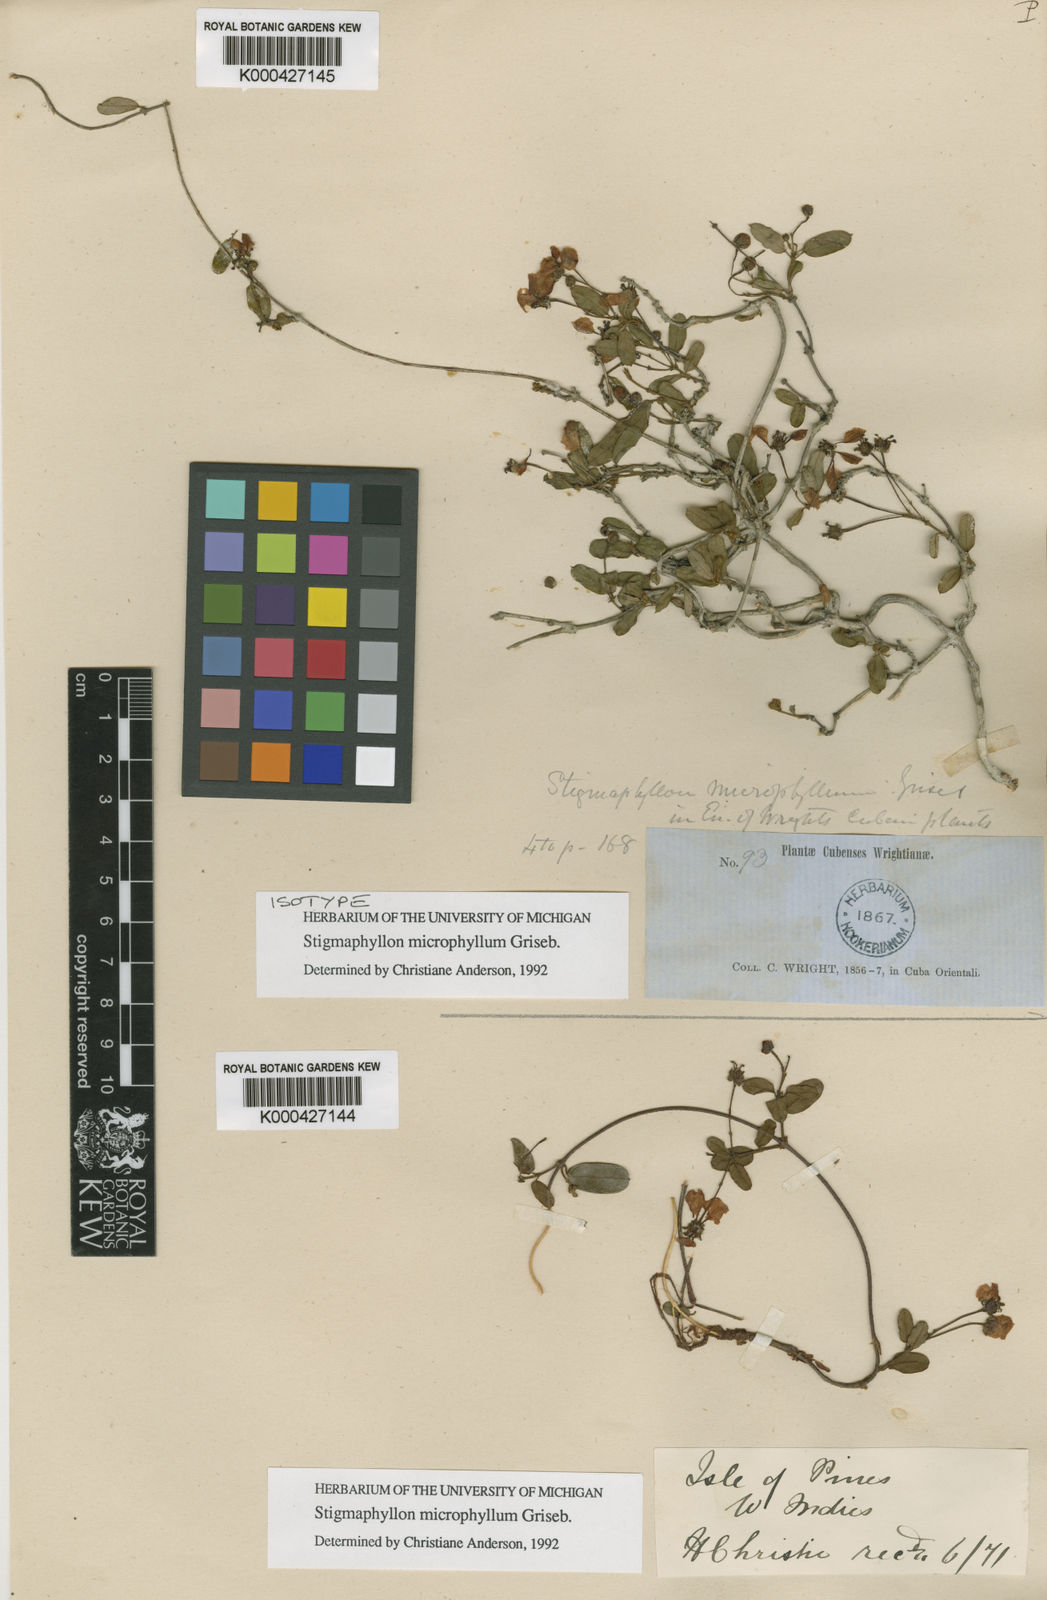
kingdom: Plantae
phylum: Tracheophyta
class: Magnoliopsida
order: Malpighiales
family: Malpighiaceae
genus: Stigmaphyllon
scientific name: Stigmaphyllon microphyllum
